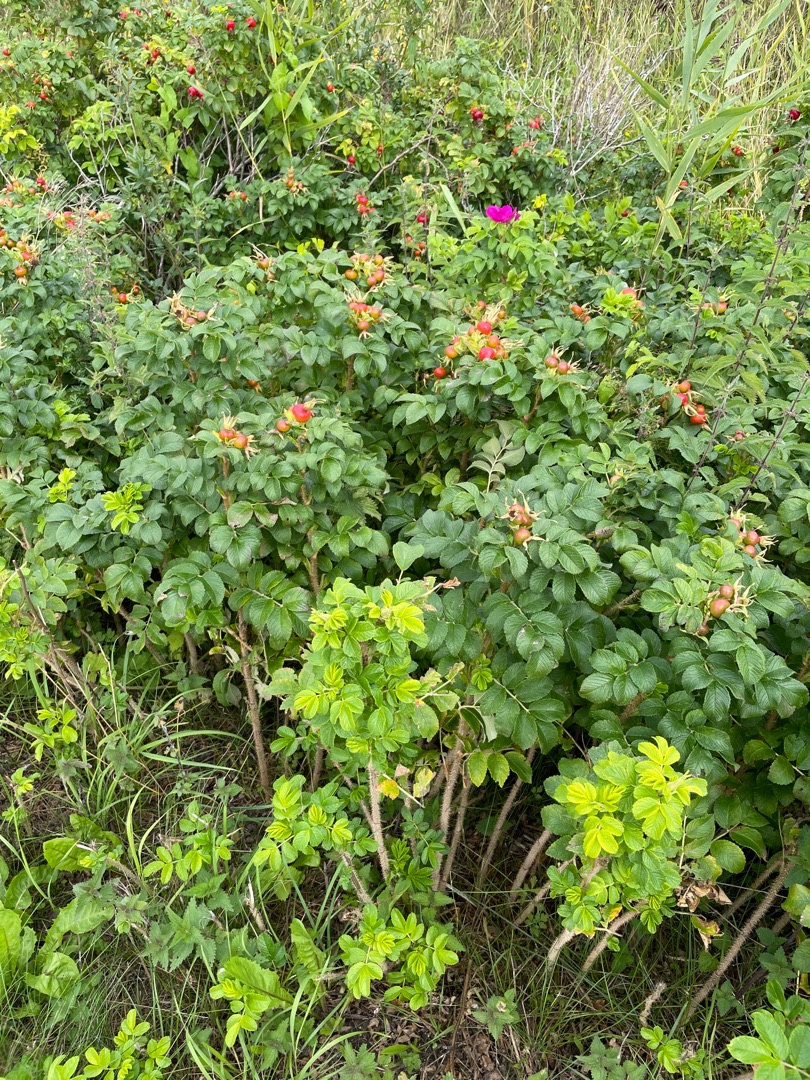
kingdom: Plantae
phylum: Tracheophyta
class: Magnoliopsida
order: Rosales
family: Rosaceae
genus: Rosa
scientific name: Rosa rugosa
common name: Rynket rose
